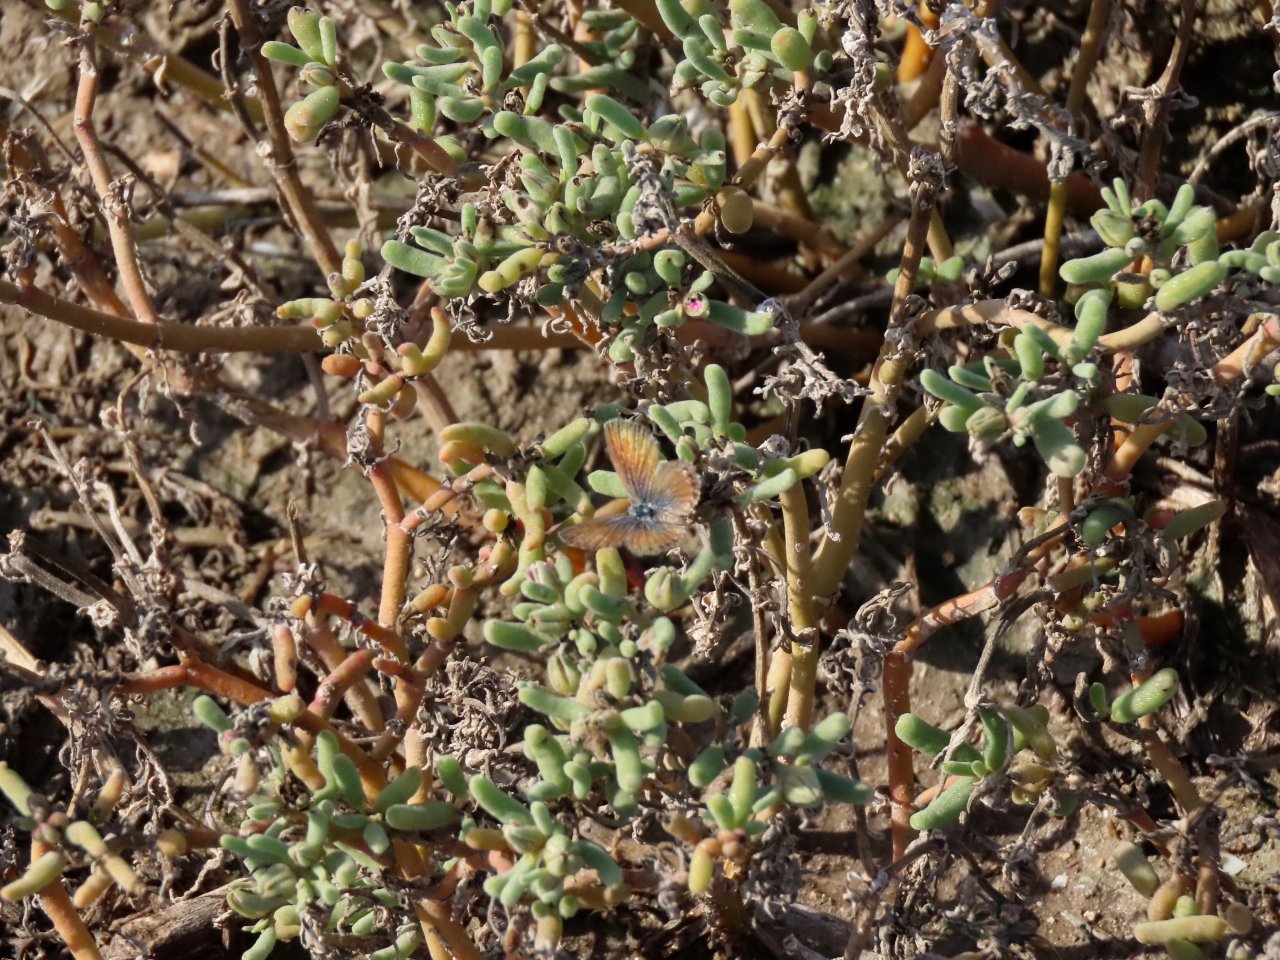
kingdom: Animalia
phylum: Arthropoda
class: Insecta
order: Lepidoptera
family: Lycaenidae
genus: Brephidium
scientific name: Brephidium exilis
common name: Western Pygmy-Blue
